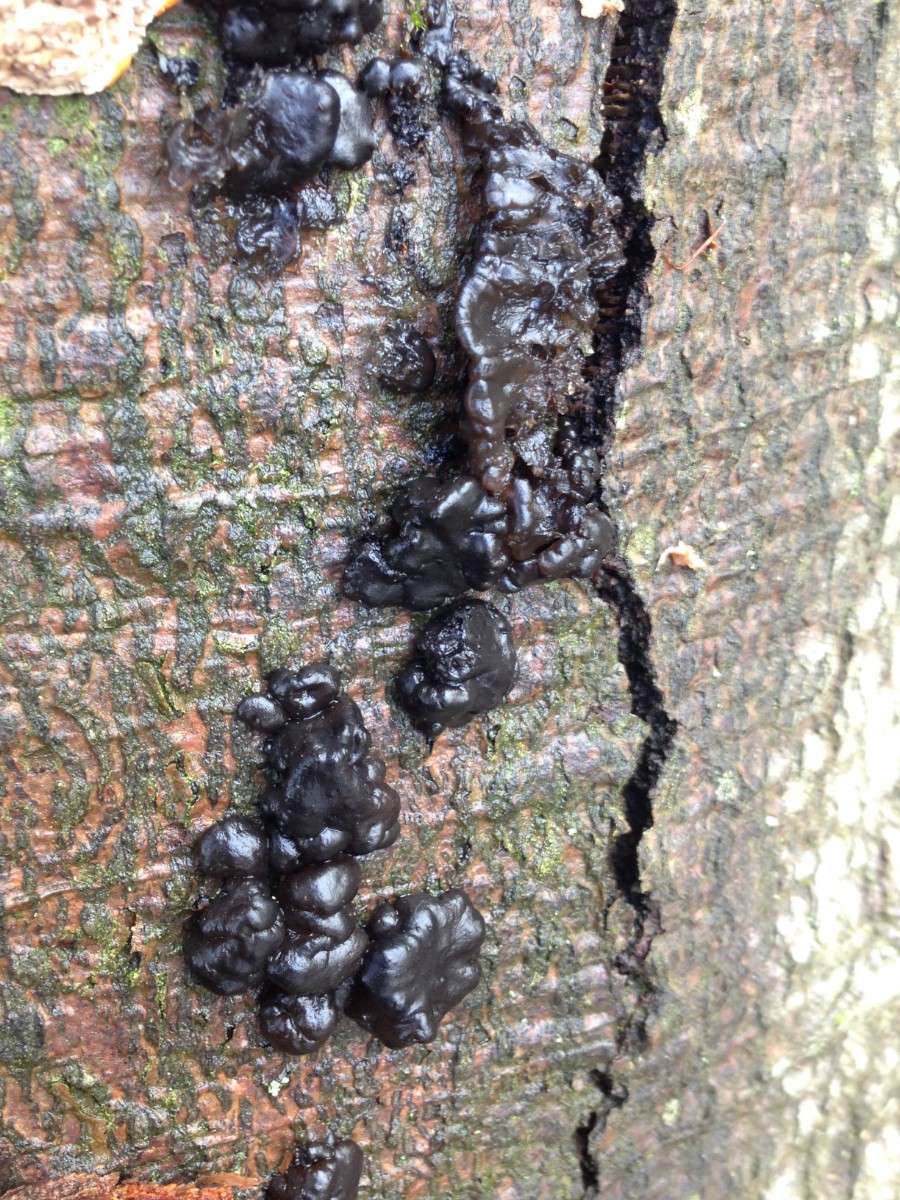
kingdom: Fungi
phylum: Basidiomycota
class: Agaricomycetes
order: Auriculariales
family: Auriculariaceae
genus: Exidia
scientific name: Exidia nigricans
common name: almindelig bævretop
